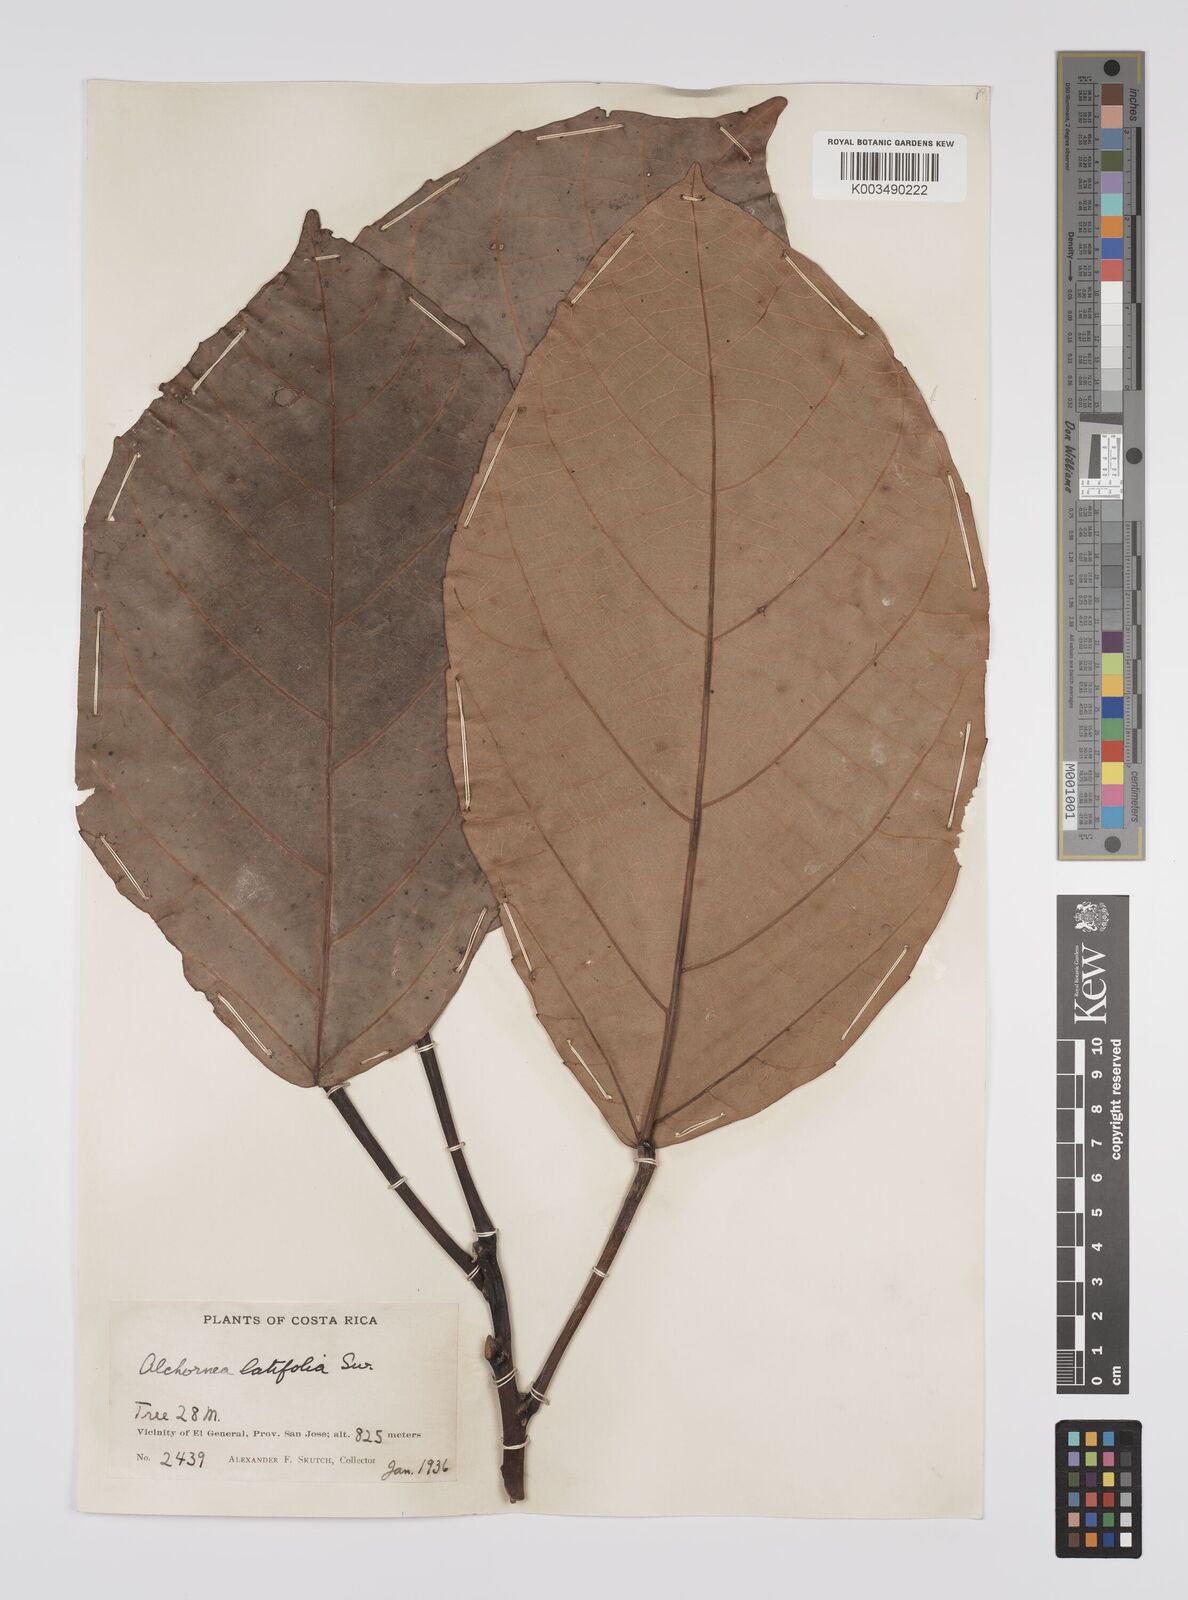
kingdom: Plantae
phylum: Tracheophyta
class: Magnoliopsida
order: Malpighiales
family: Euphorbiaceae
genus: Alchornea
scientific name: Alchornea latifolia
